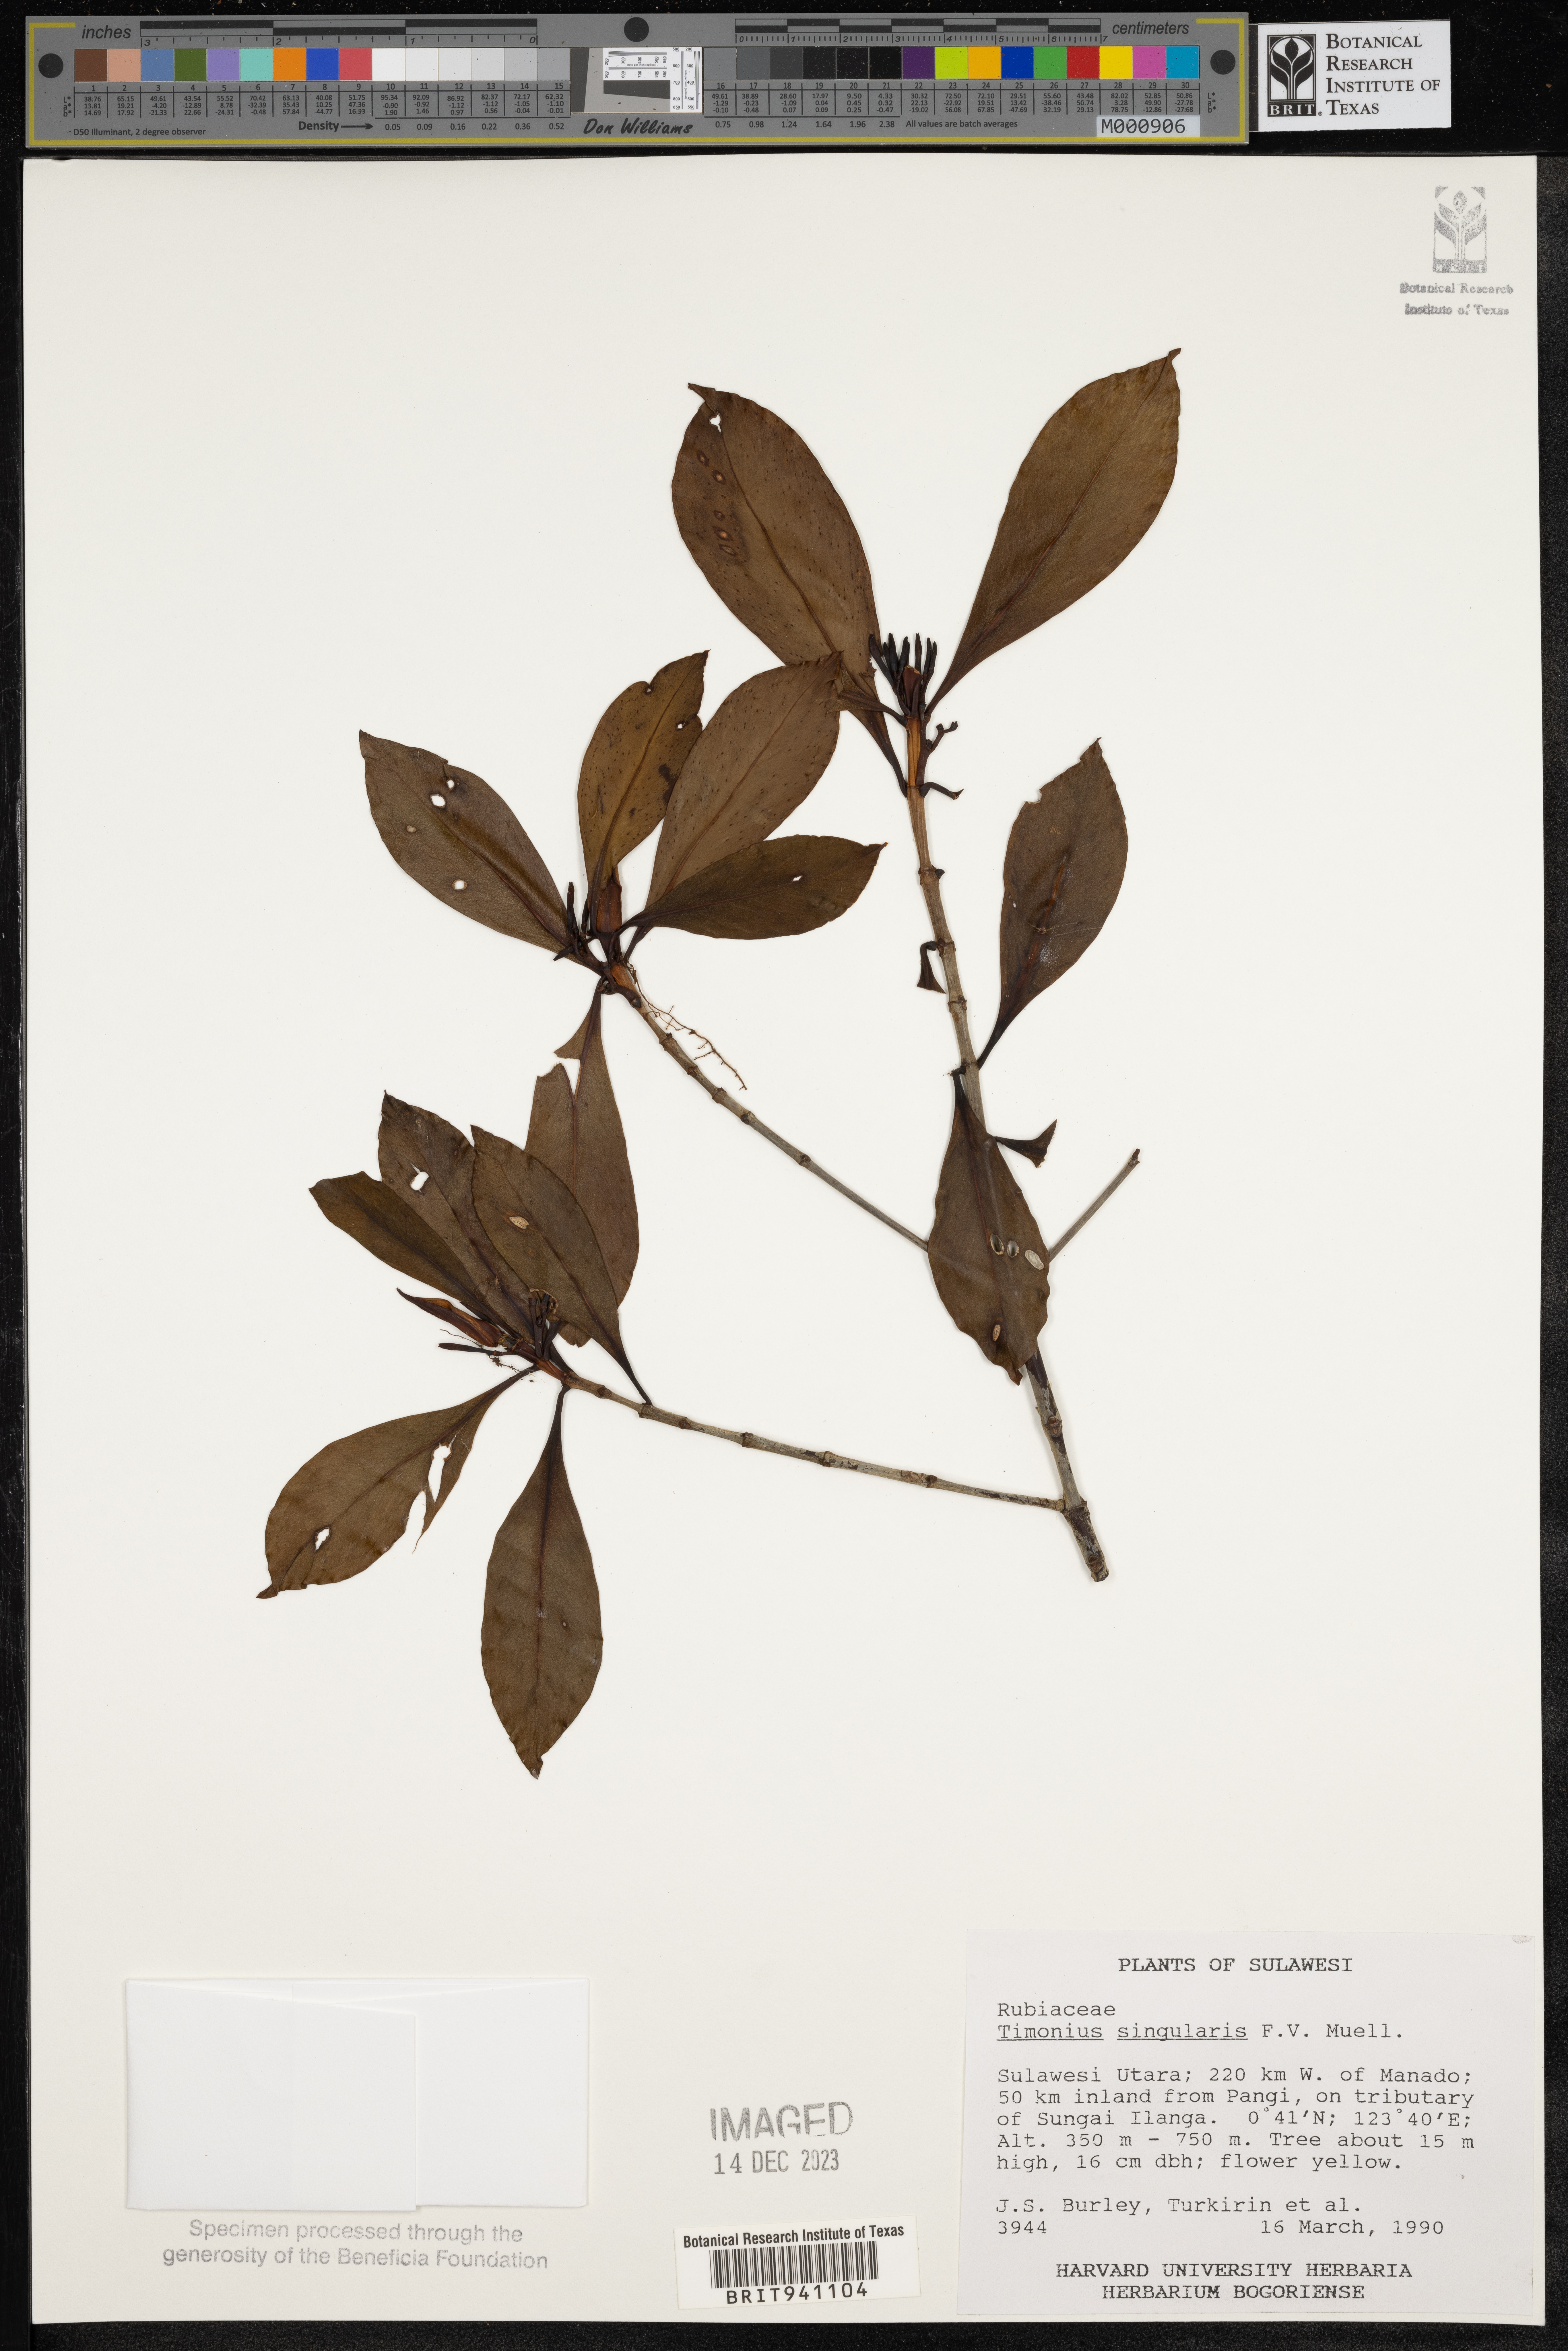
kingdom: Plantae
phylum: Tracheophyta
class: Magnoliopsida
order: Gentianales
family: Rubiaceae
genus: Timonius
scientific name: Timonius
